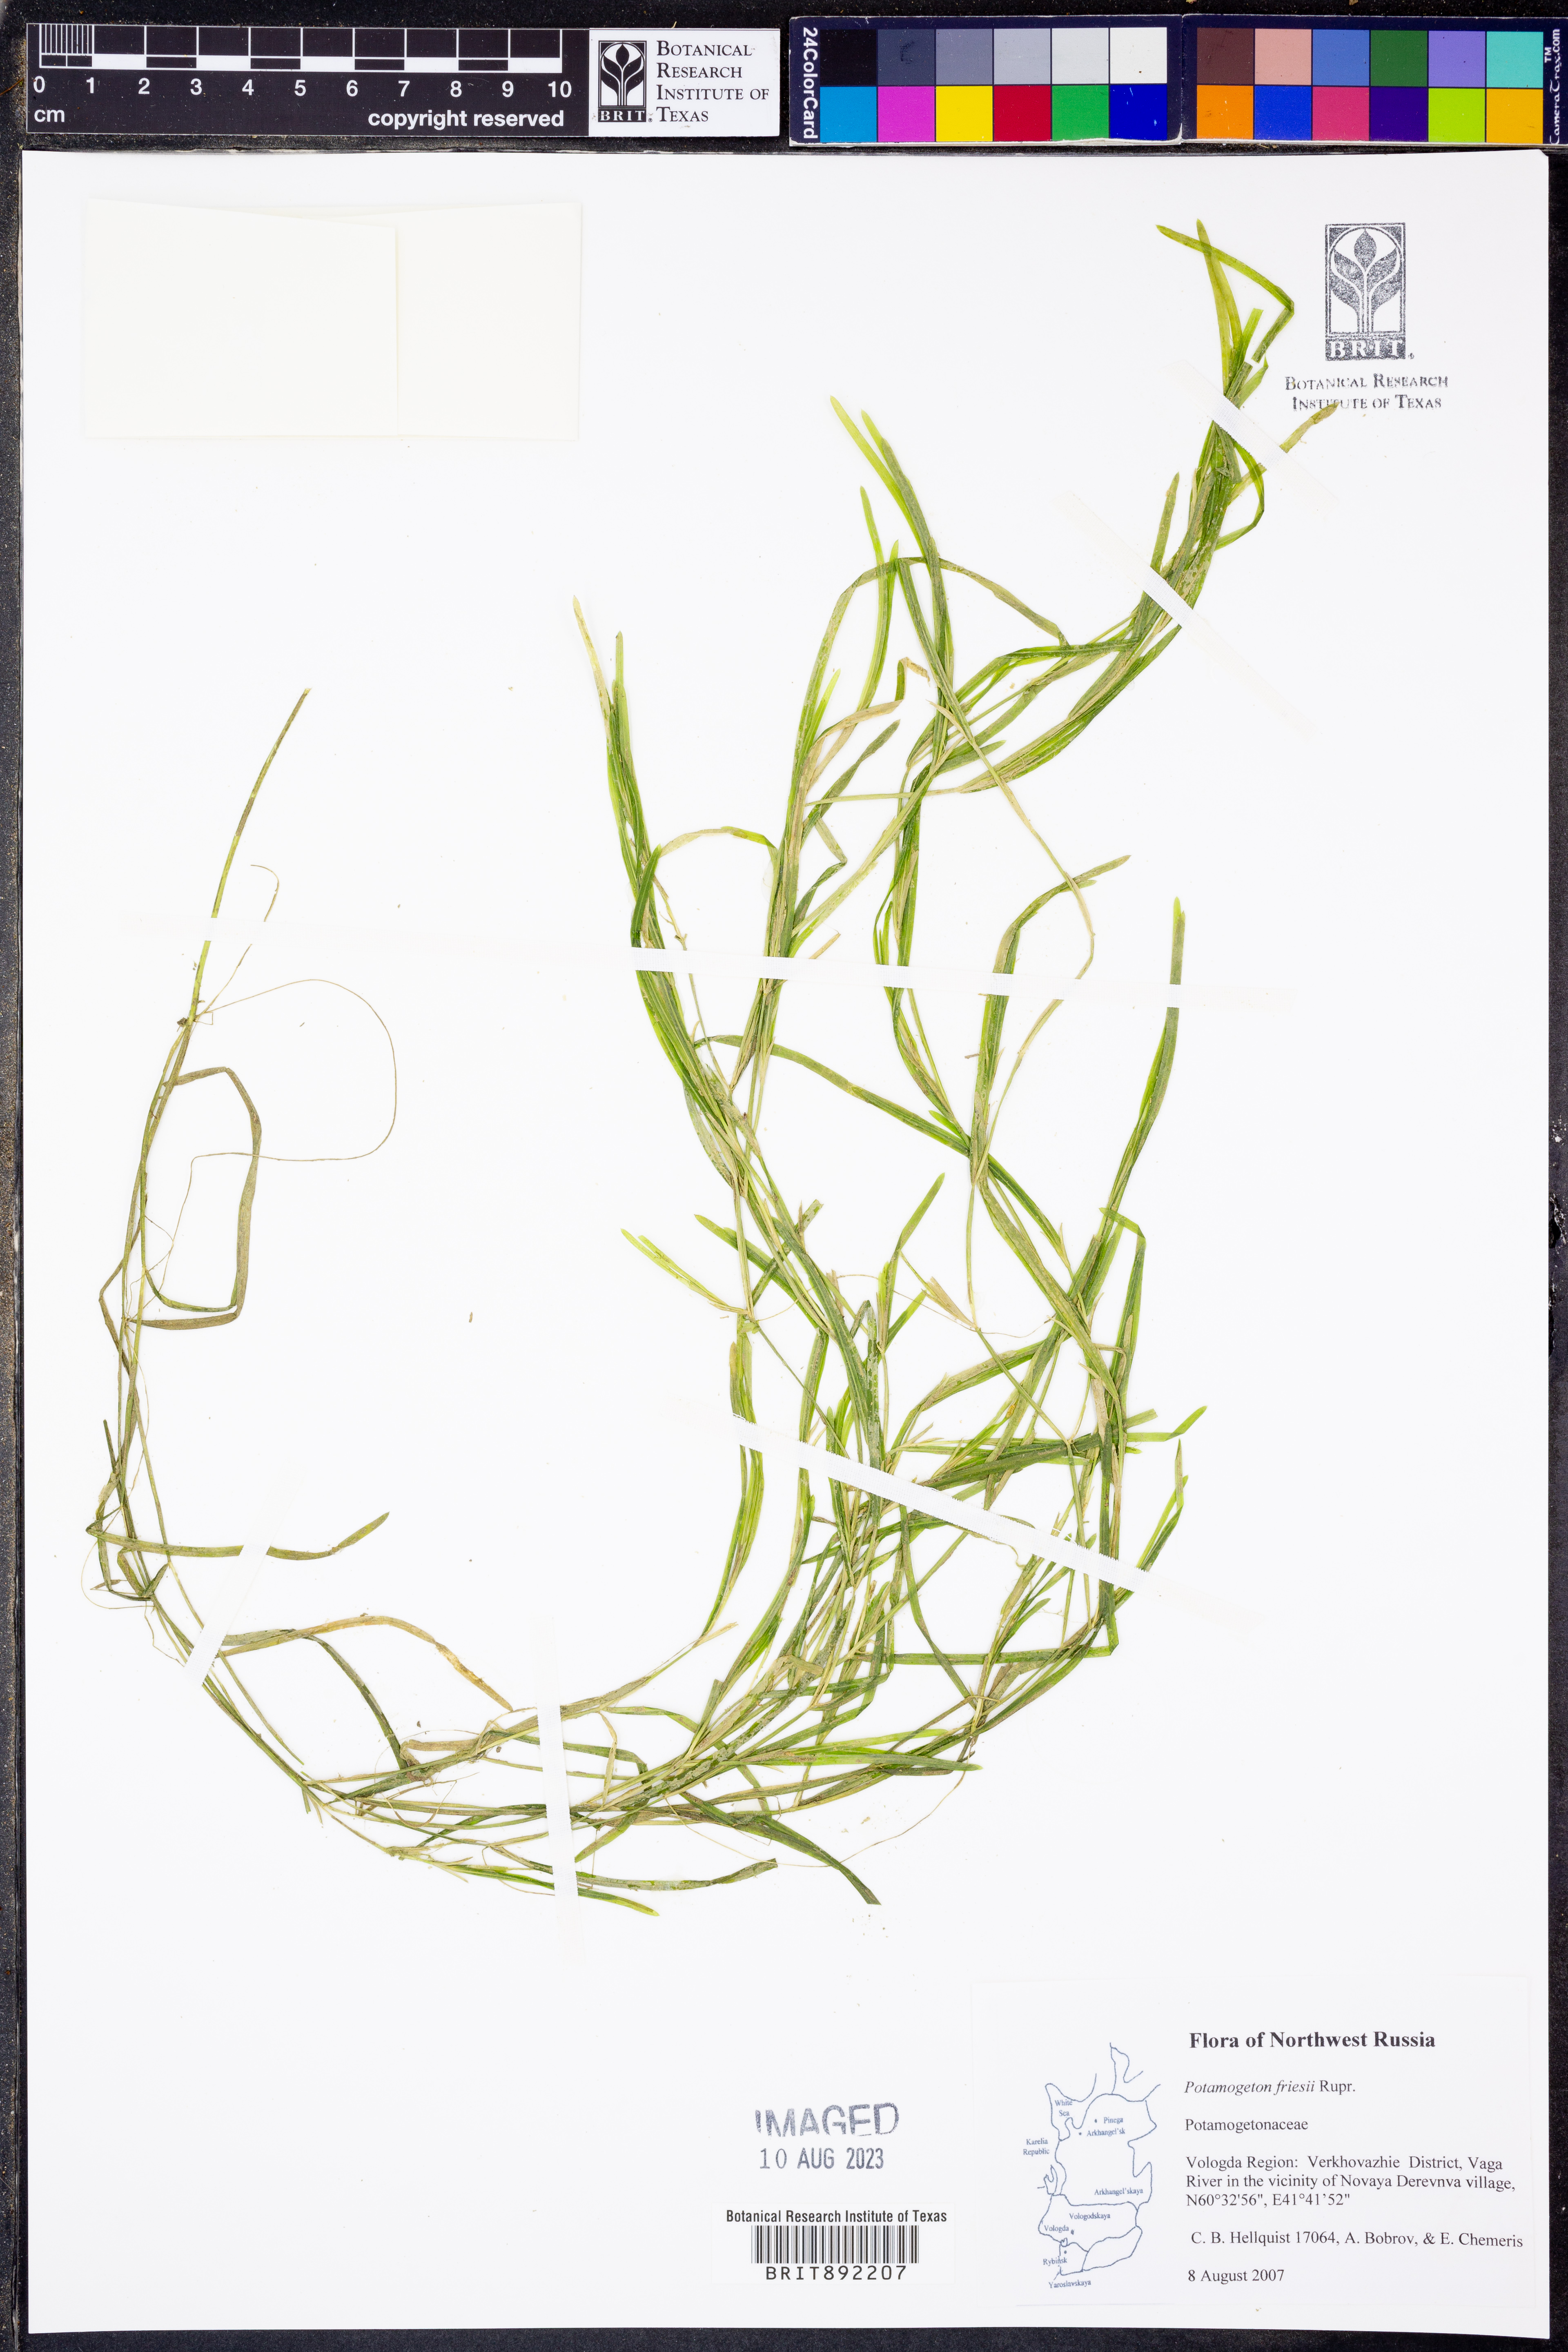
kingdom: Plantae
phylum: Tracheophyta
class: Liliopsida
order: Alismatales
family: Potamogetonaceae
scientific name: Potamogetonaceae
